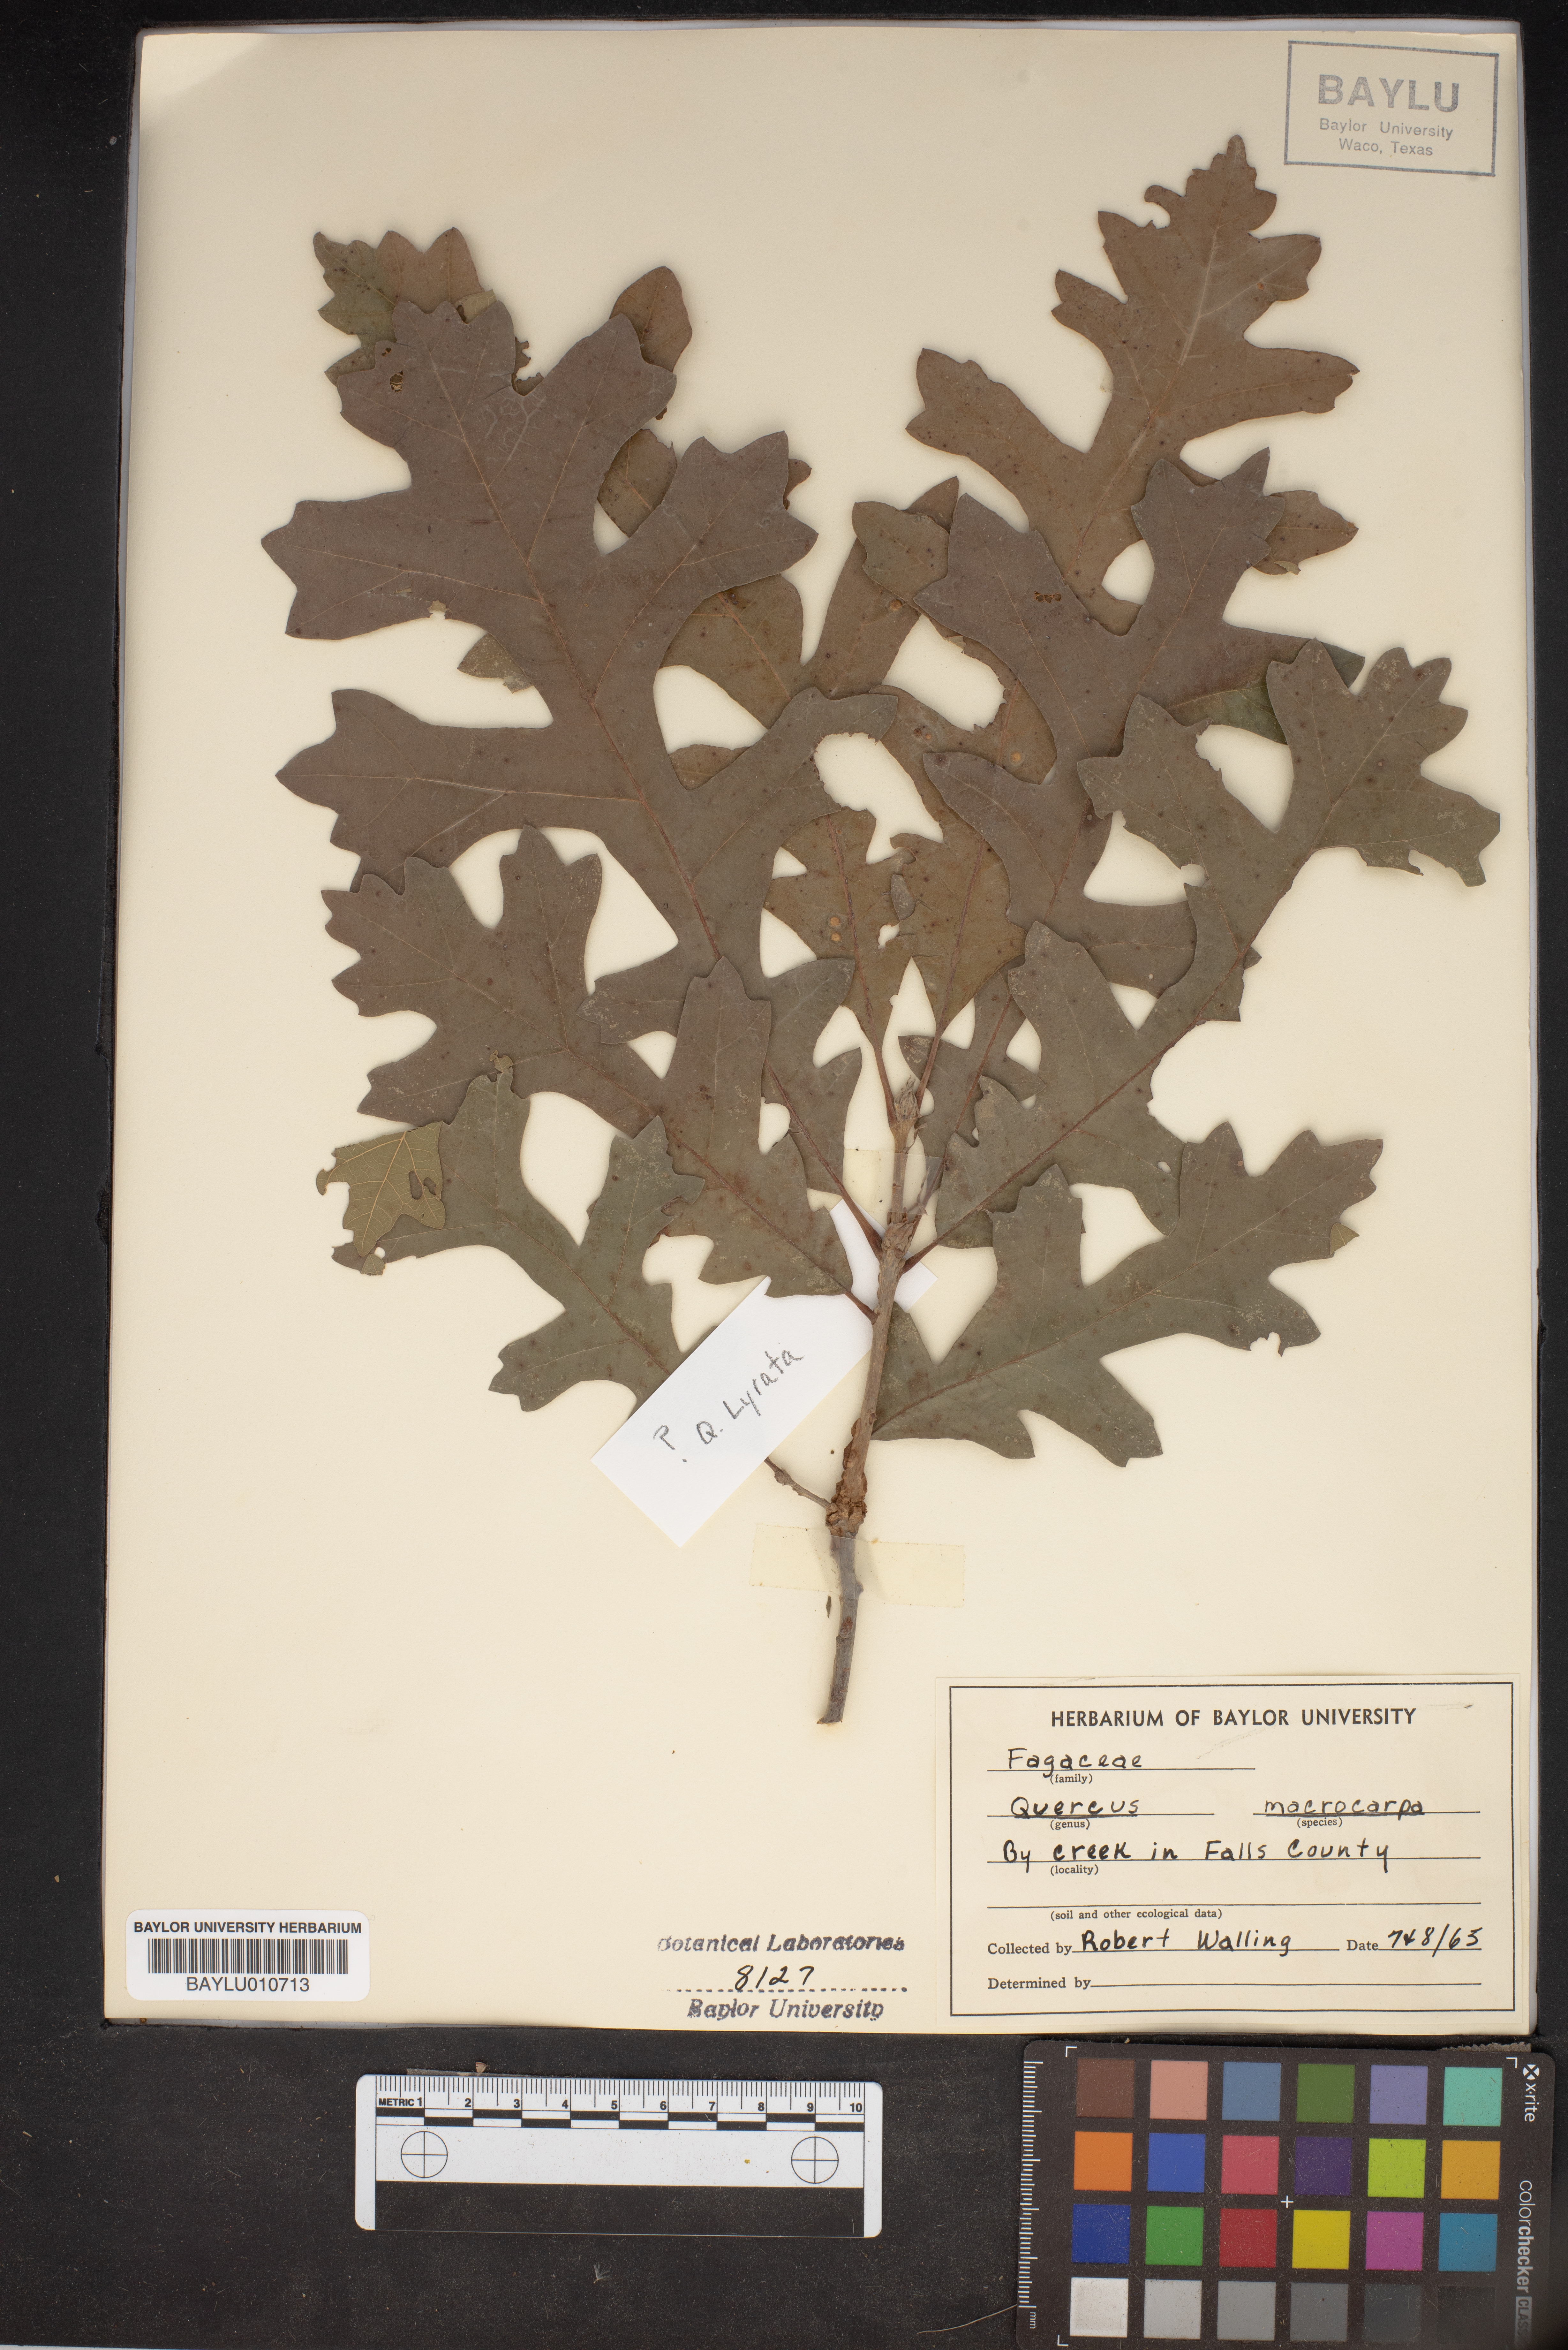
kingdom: Plantae
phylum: Tracheophyta
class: Magnoliopsida
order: Fagales
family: Fagaceae
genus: Quercus
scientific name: Quercus macrocarpa
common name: Bur oak
